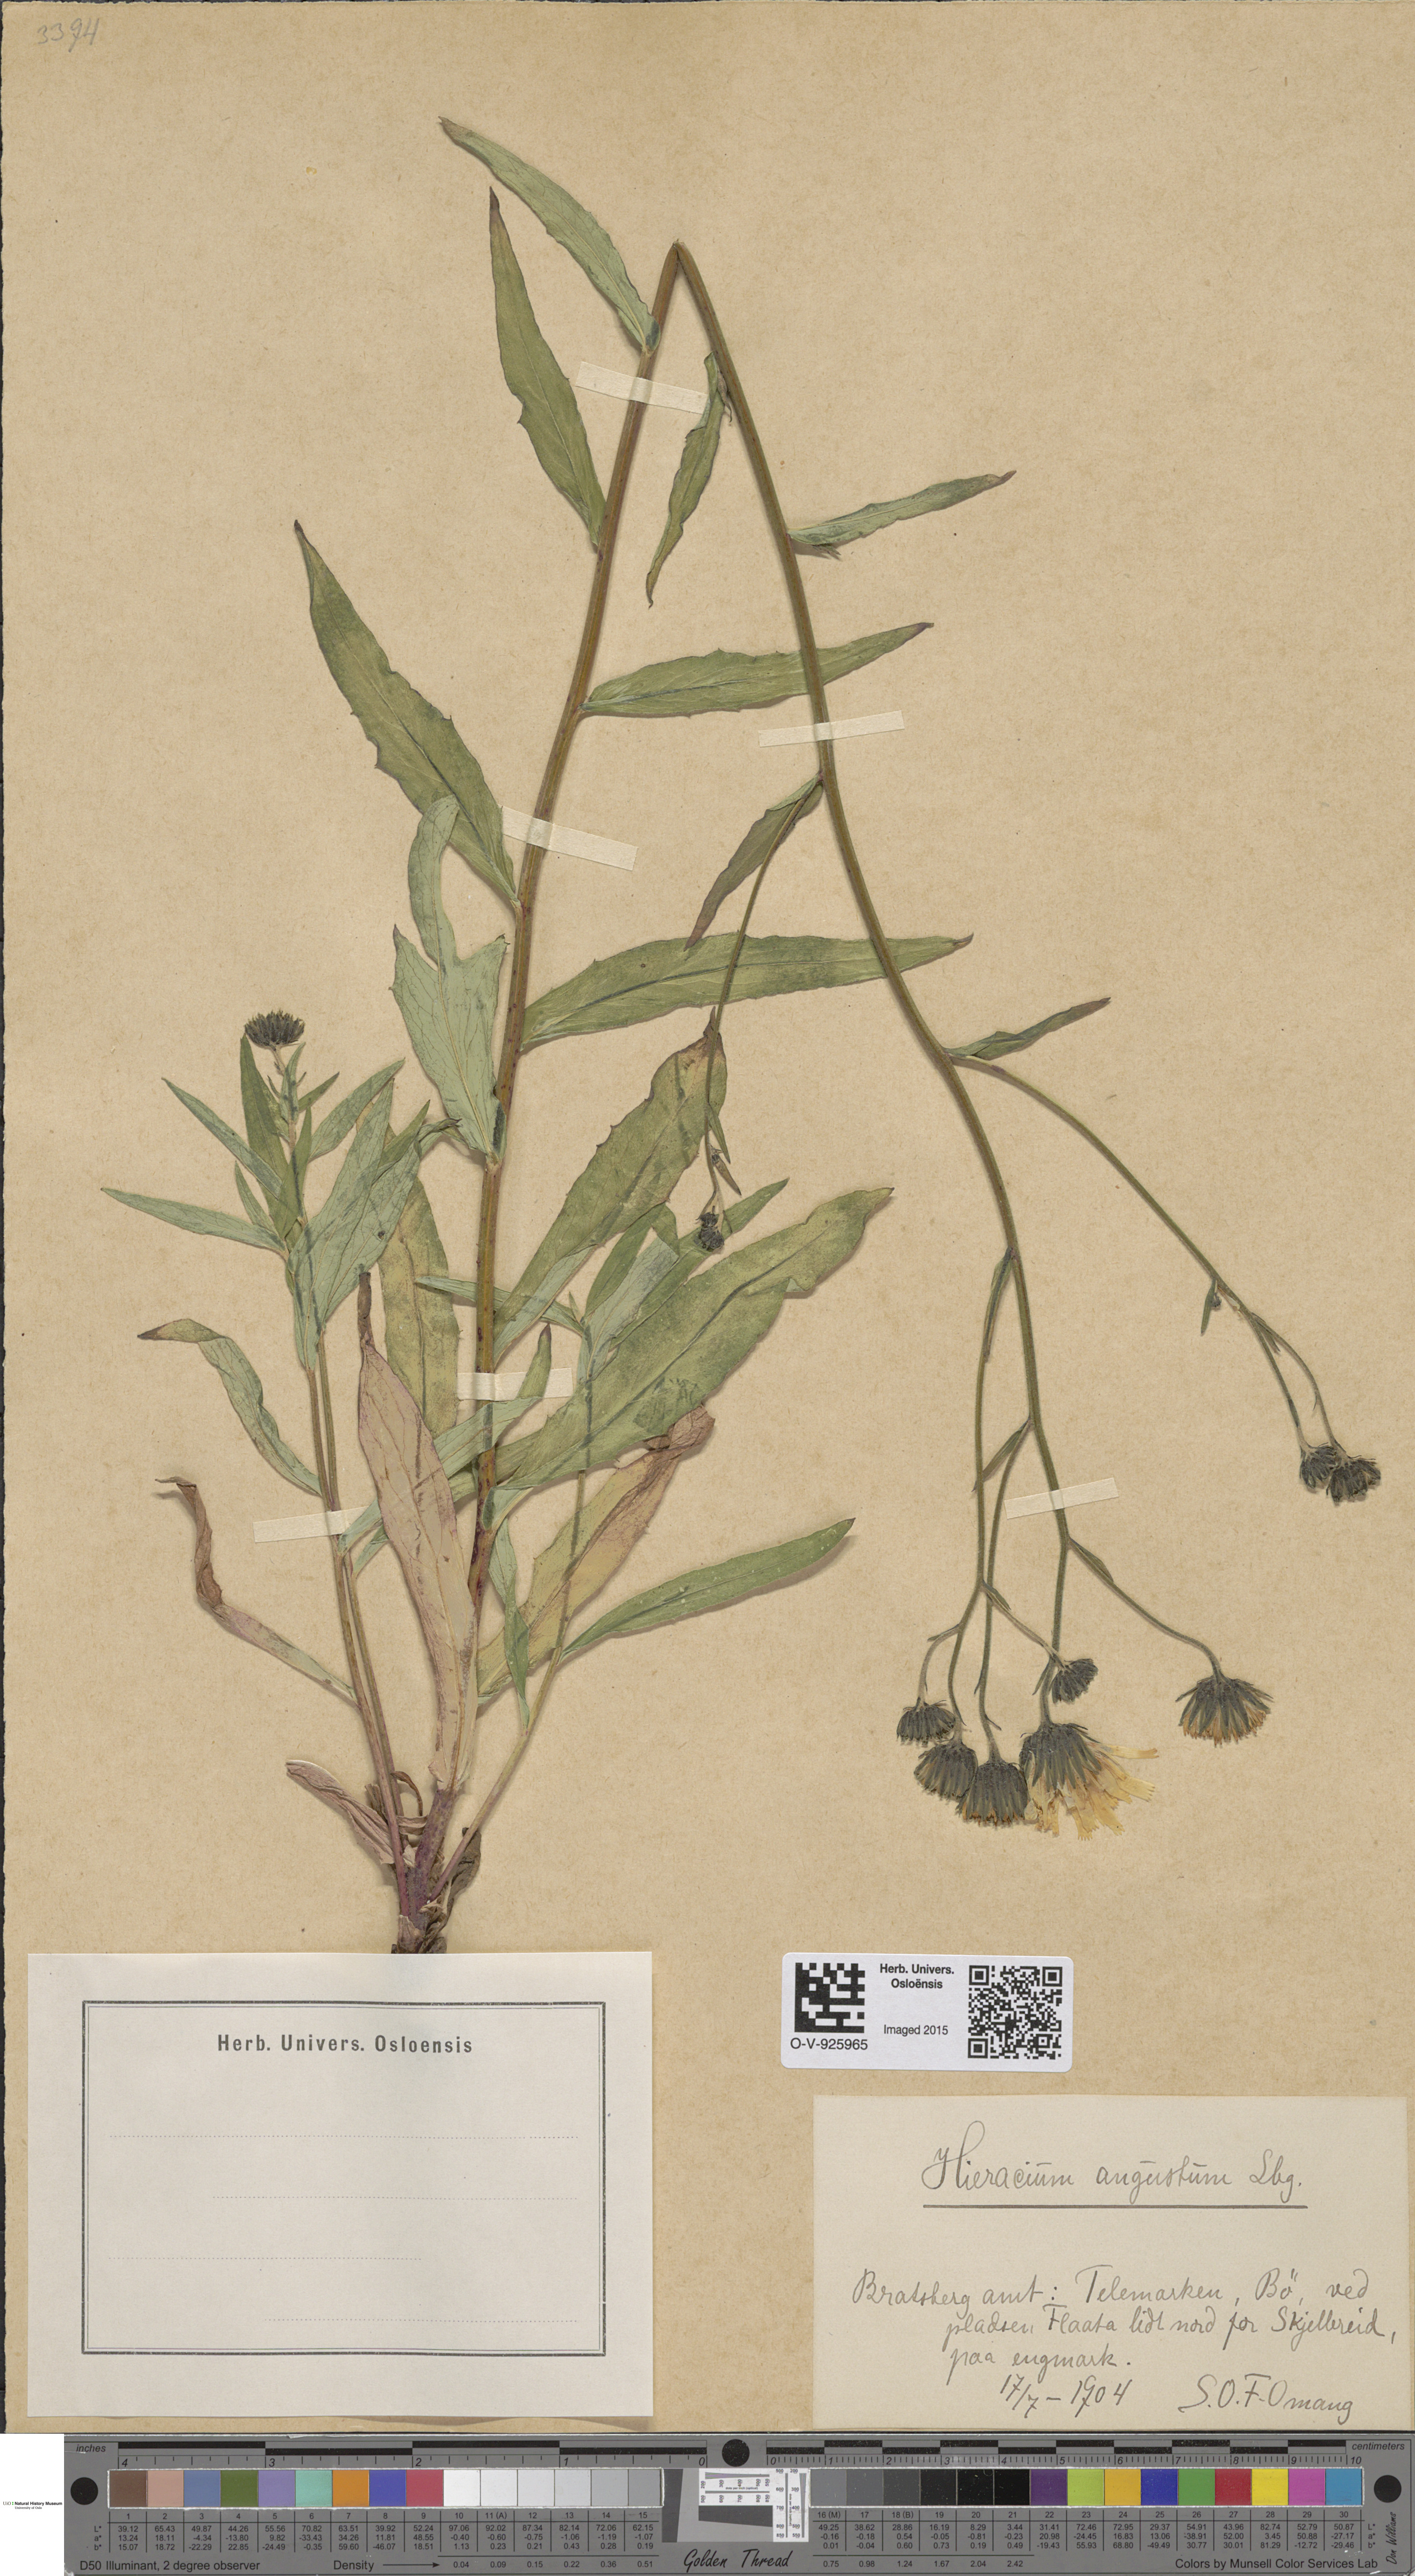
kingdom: Plantae
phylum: Tracheophyta
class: Magnoliopsida
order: Asterales
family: Asteraceae
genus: Hieracium
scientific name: Hieracium angustum
